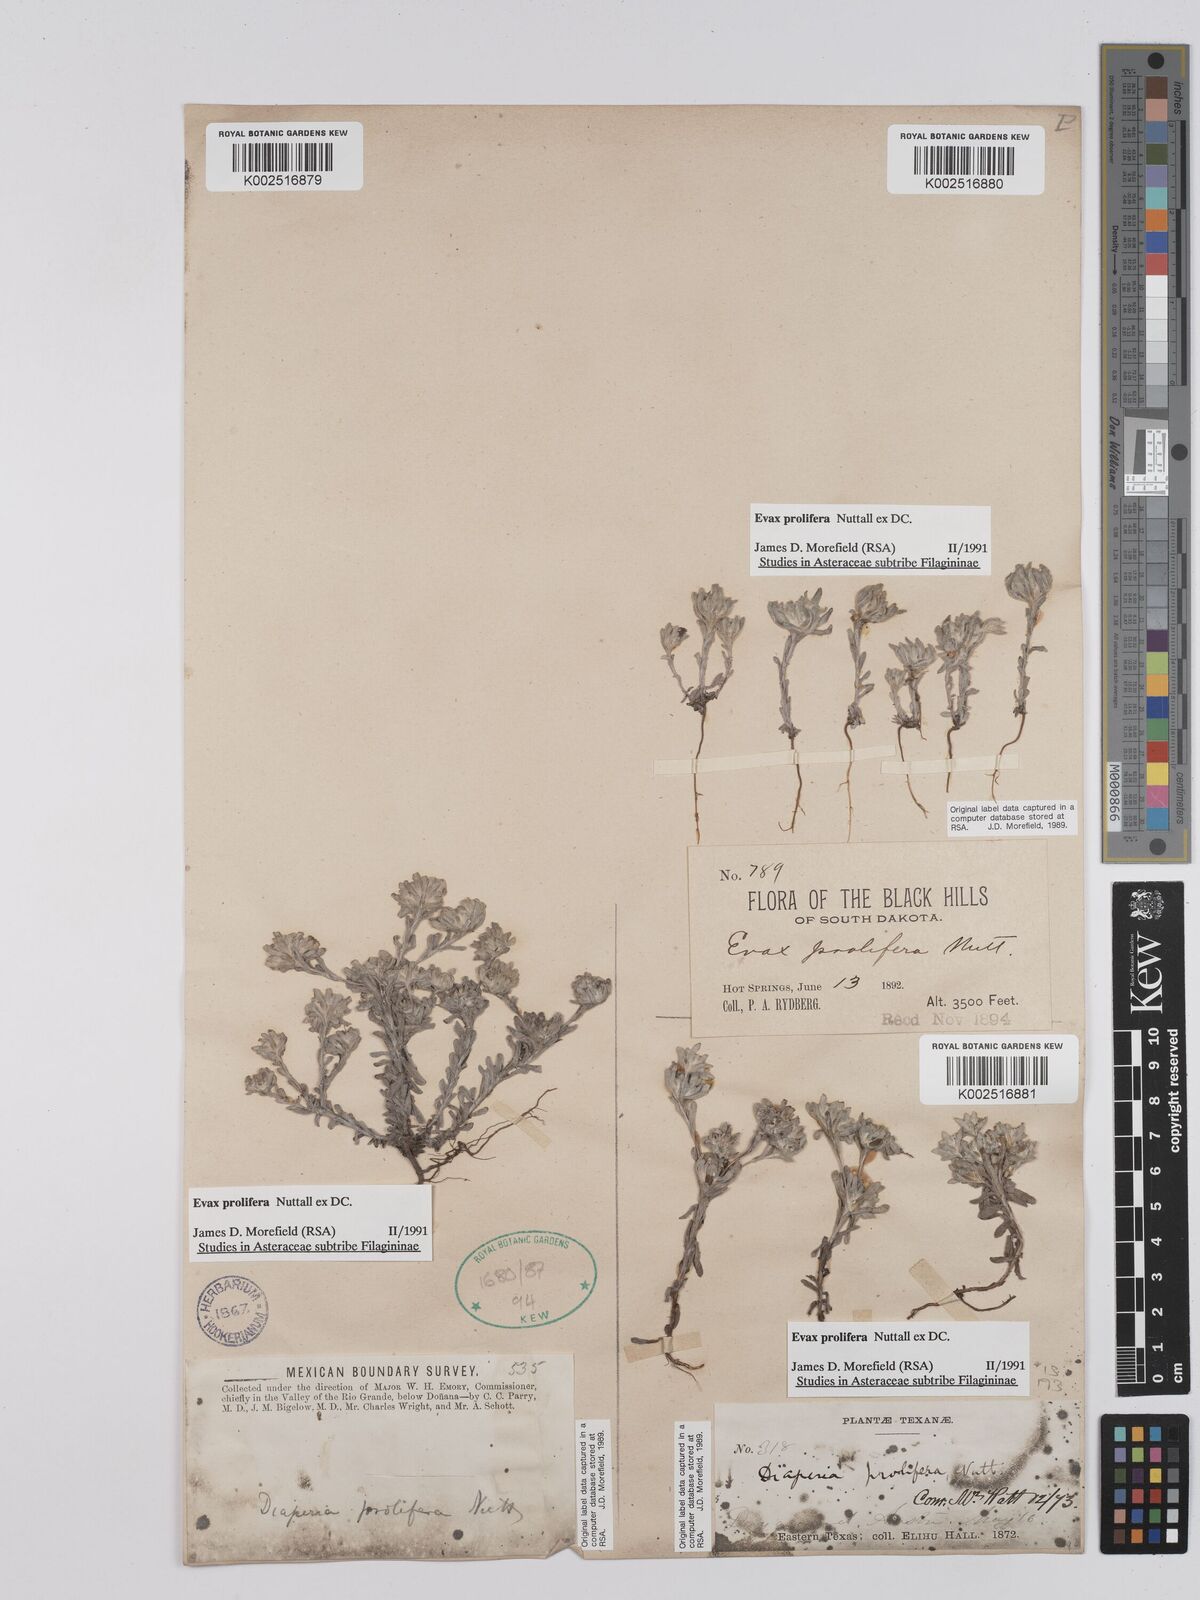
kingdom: Plantae
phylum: Tracheophyta
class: Magnoliopsida
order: Asterales
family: Asteraceae
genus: Diaperia
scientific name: Diaperia prolifera
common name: Big-head rabbit-tobacco
